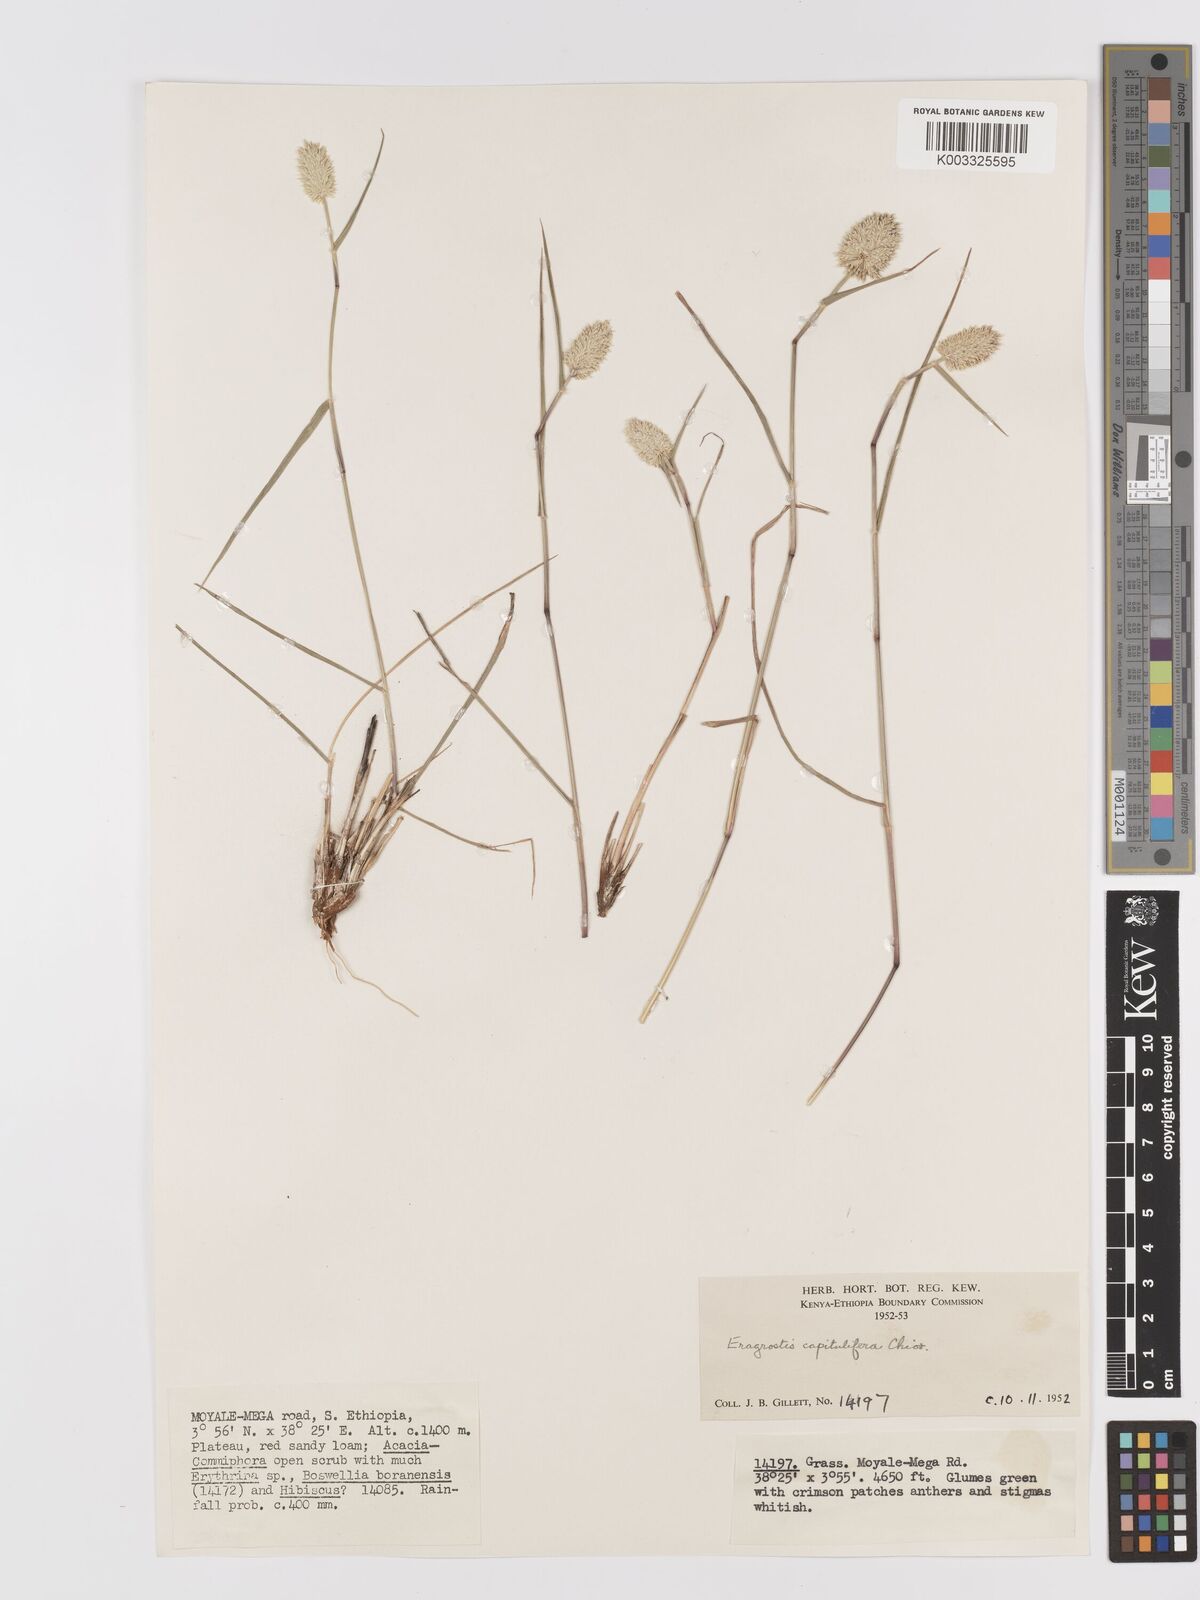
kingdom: Plantae
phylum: Tracheophyta
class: Liliopsida
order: Poales
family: Poaceae
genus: Eragrostis
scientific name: Eragrostis capitulifera
